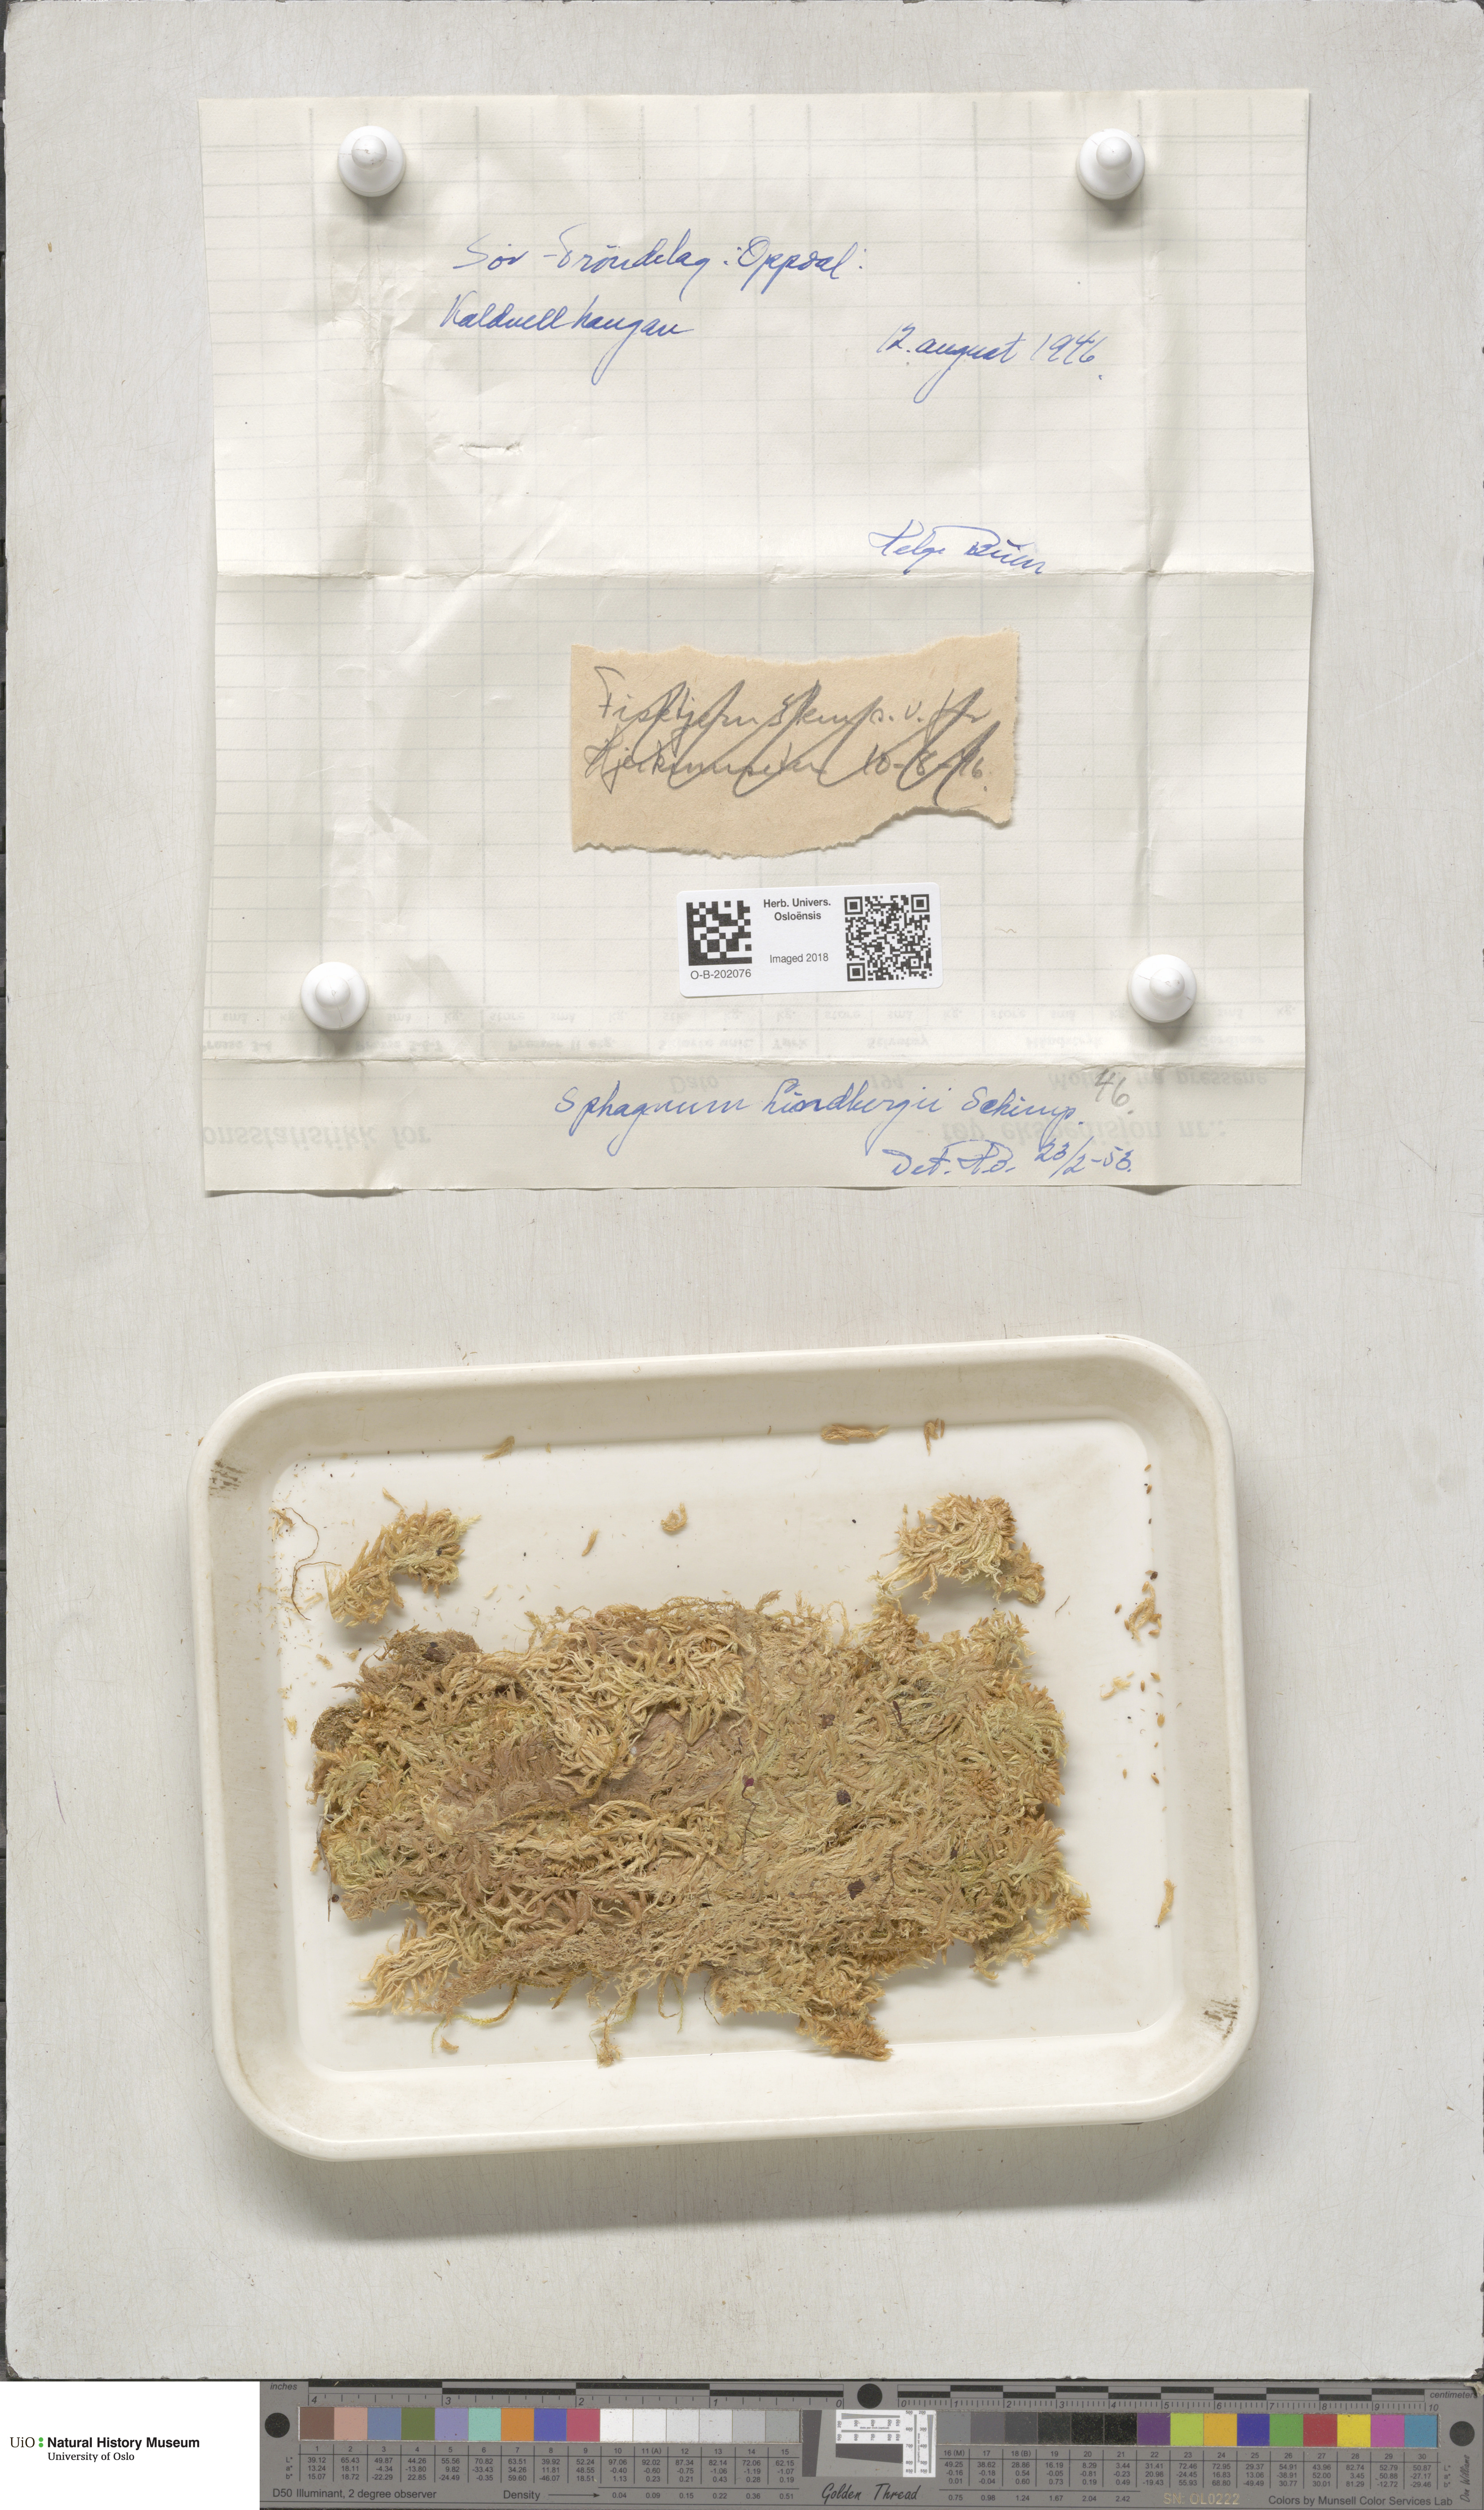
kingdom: Plantae
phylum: Bryophyta
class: Sphagnopsida
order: Sphagnales
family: Sphagnaceae
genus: Sphagnum
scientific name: Sphagnum lindbergii
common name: Lindberg's peat moss
